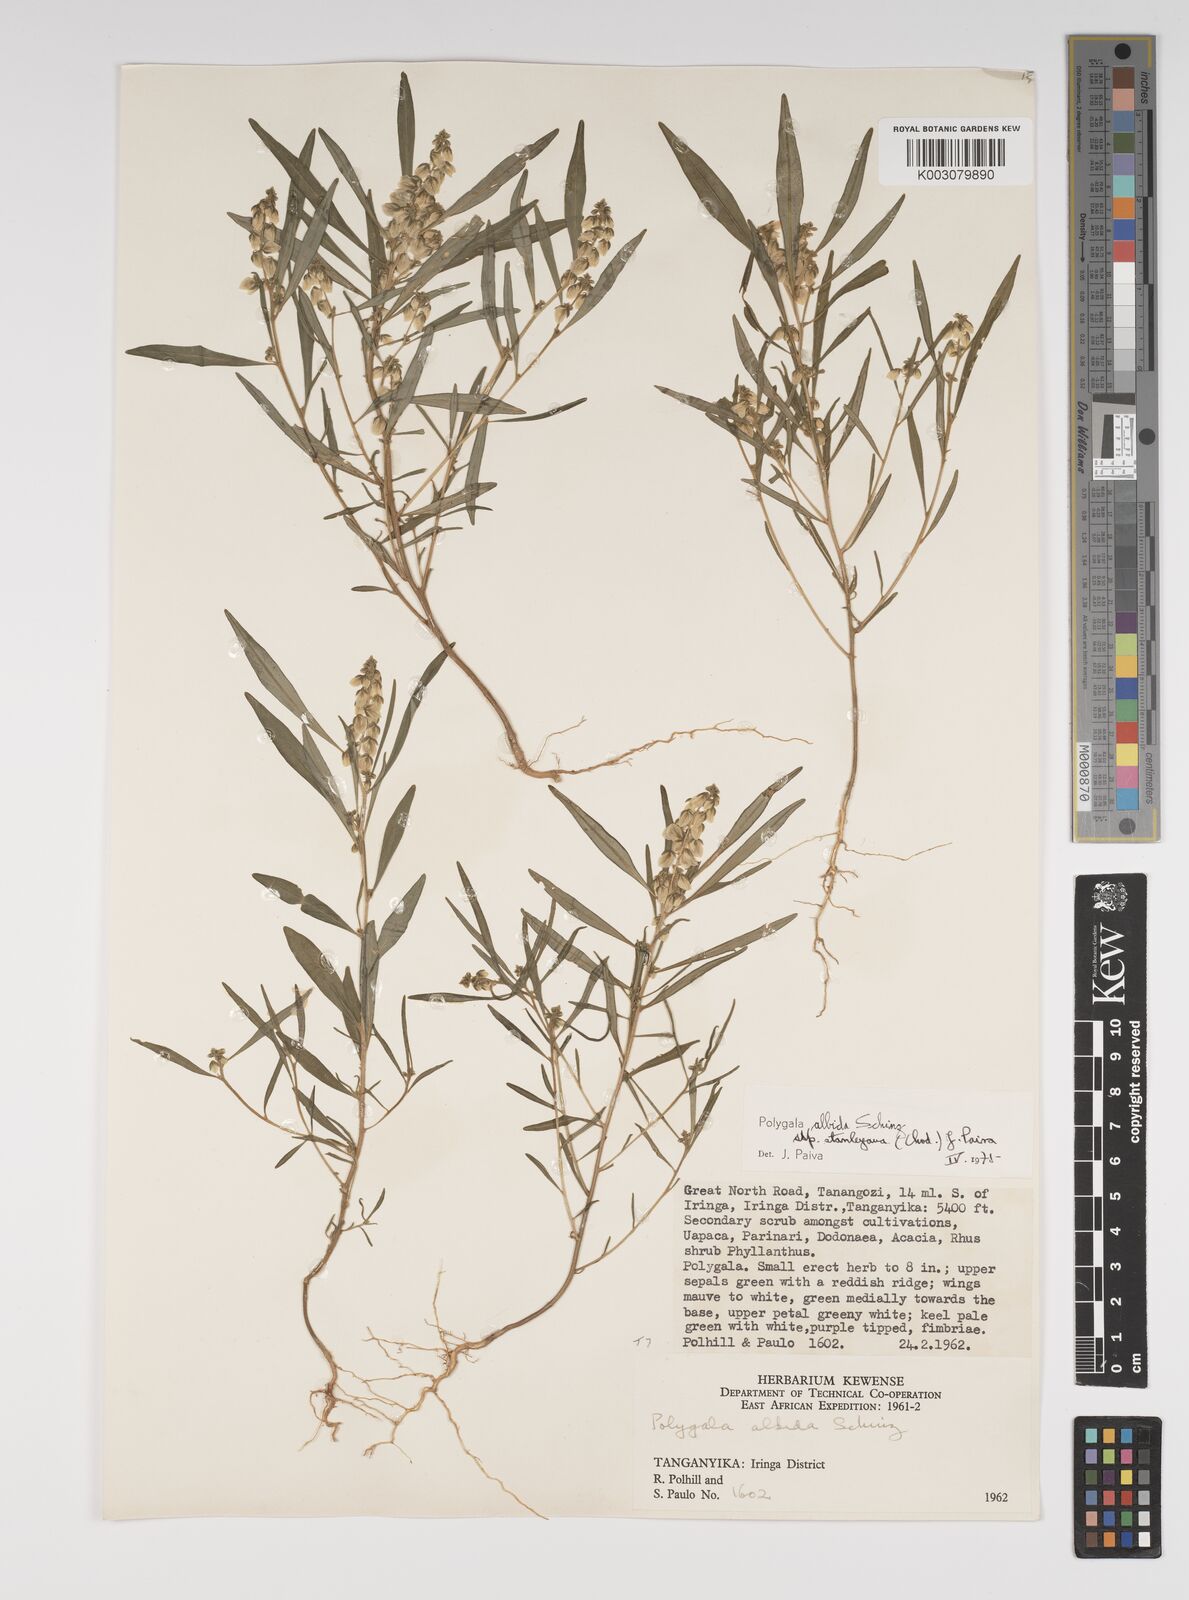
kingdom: Plantae
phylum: Tracheophyta
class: Magnoliopsida
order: Fabales
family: Polygalaceae
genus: Polygala
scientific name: Polygala albida
